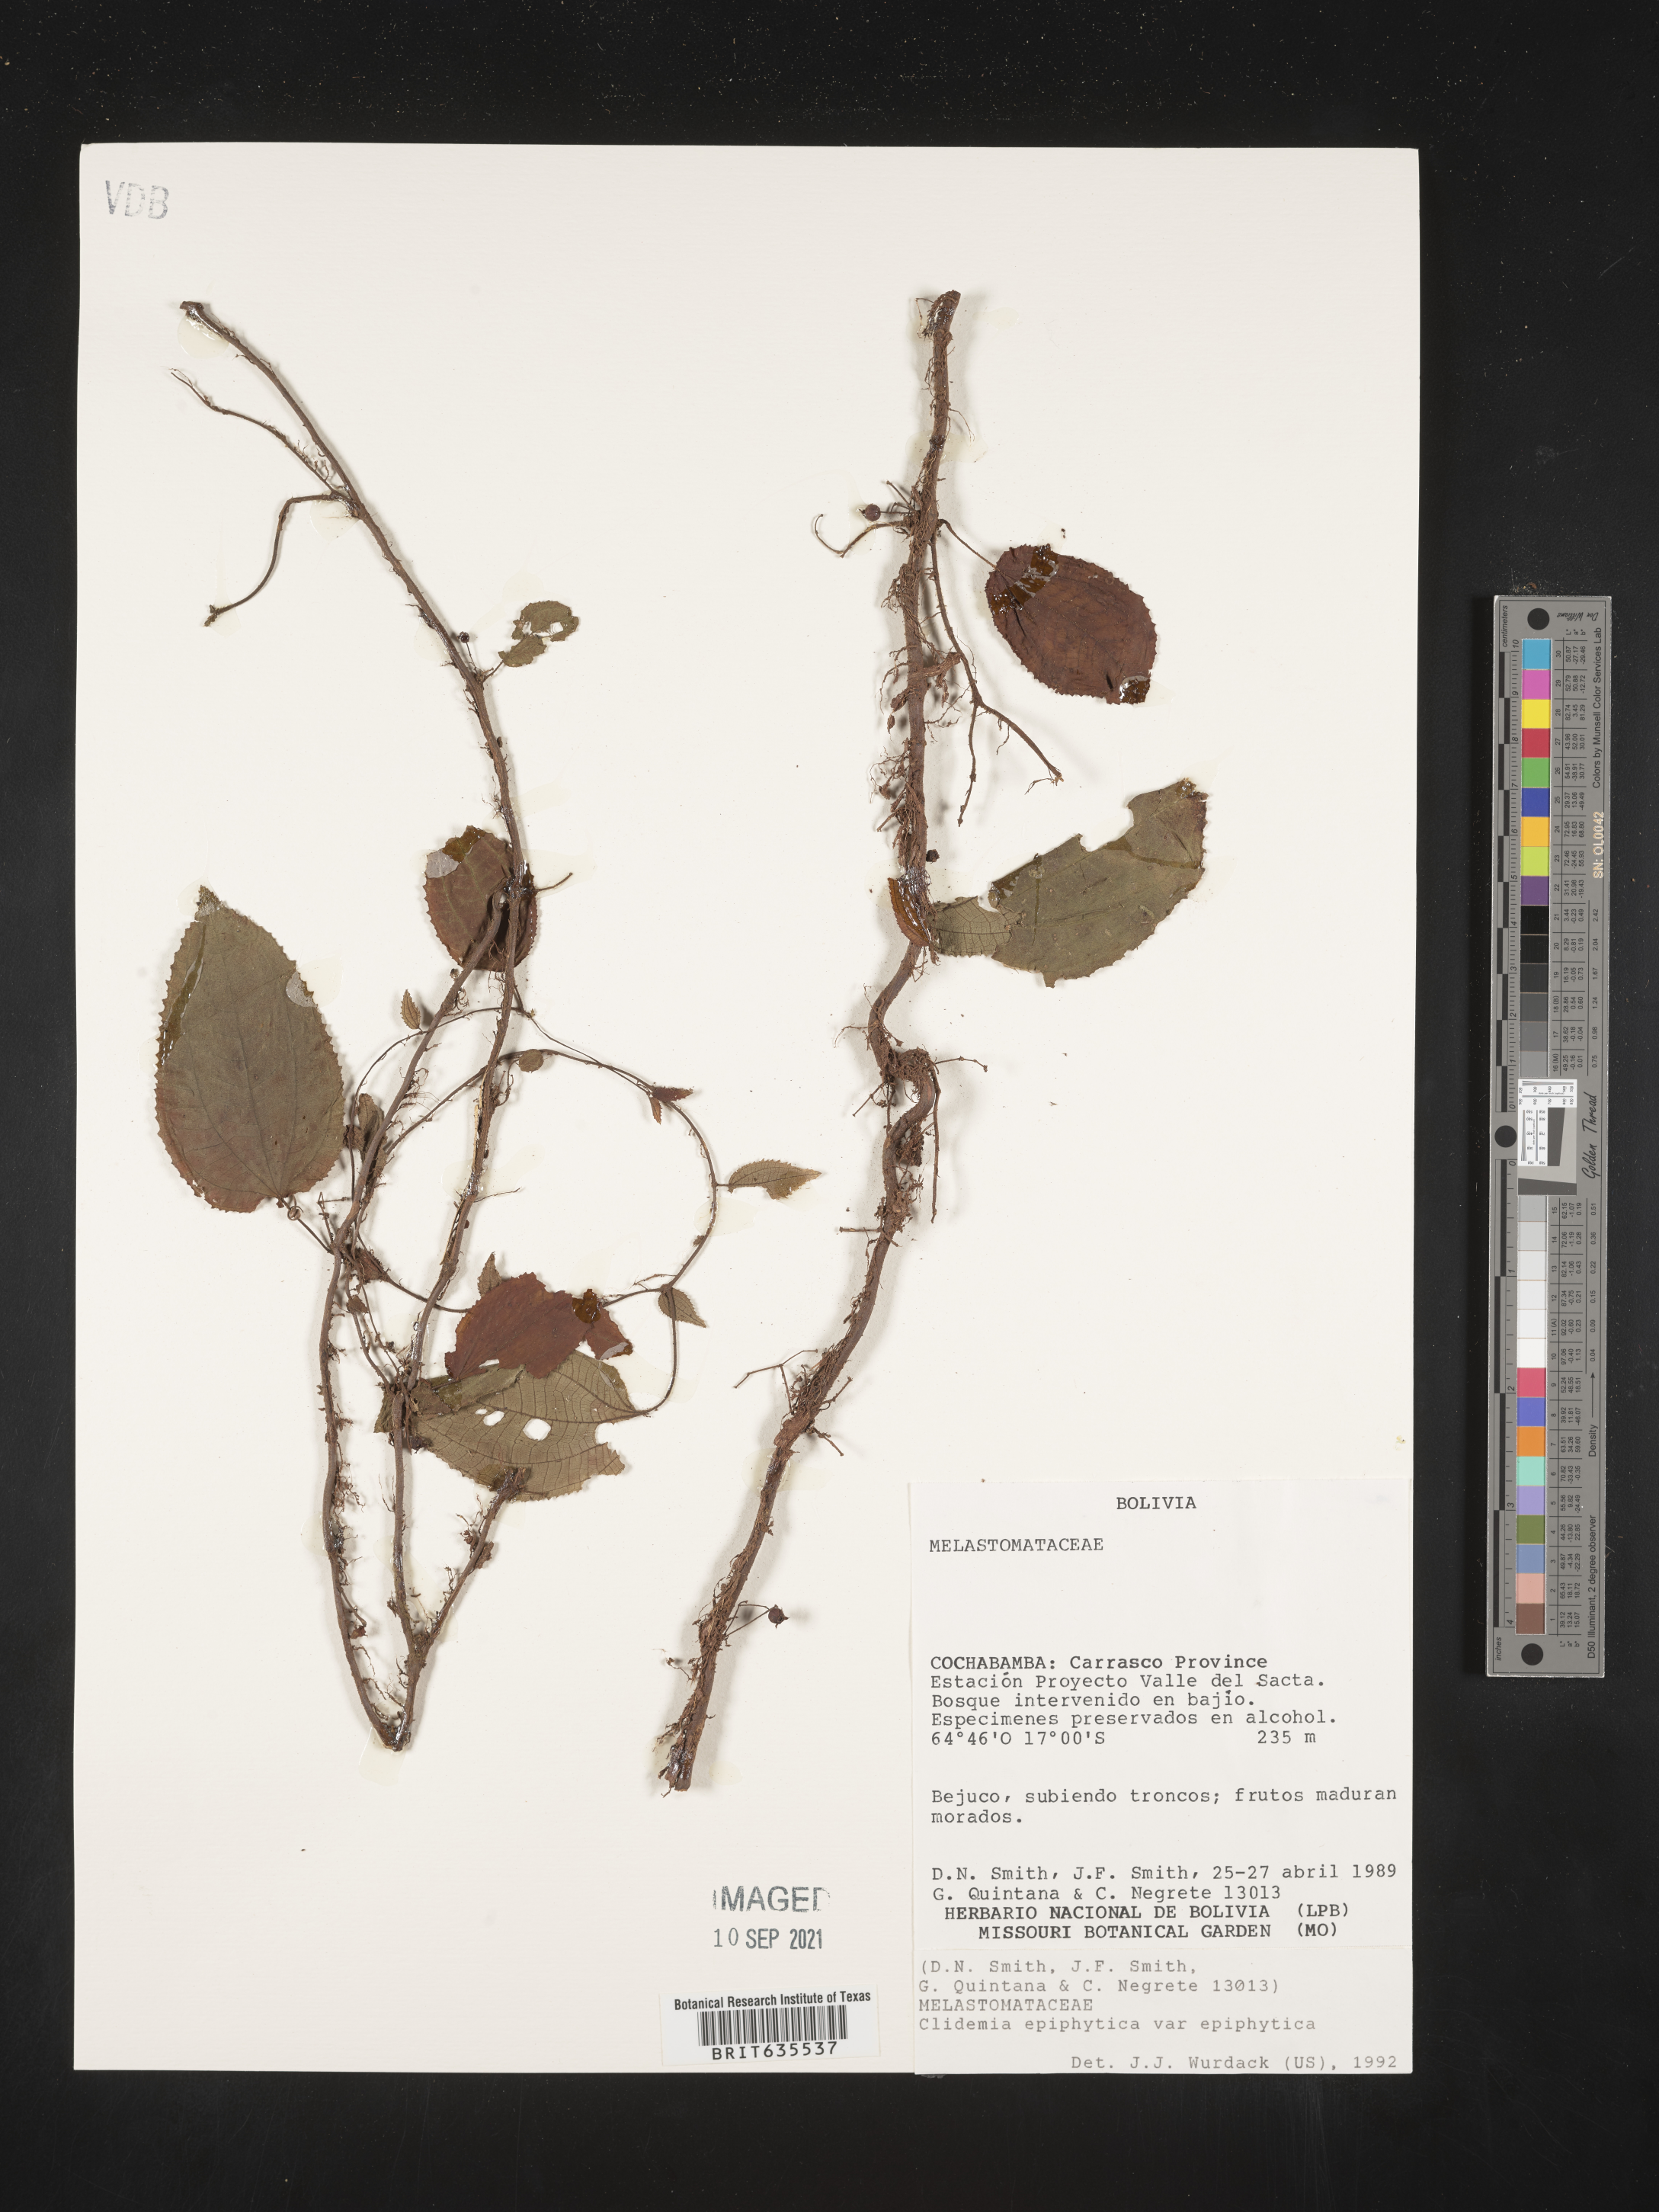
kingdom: Plantae
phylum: Tracheophyta
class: Magnoliopsida
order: Myrtales
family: Melastomataceae
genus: Miconia
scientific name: Miconia
